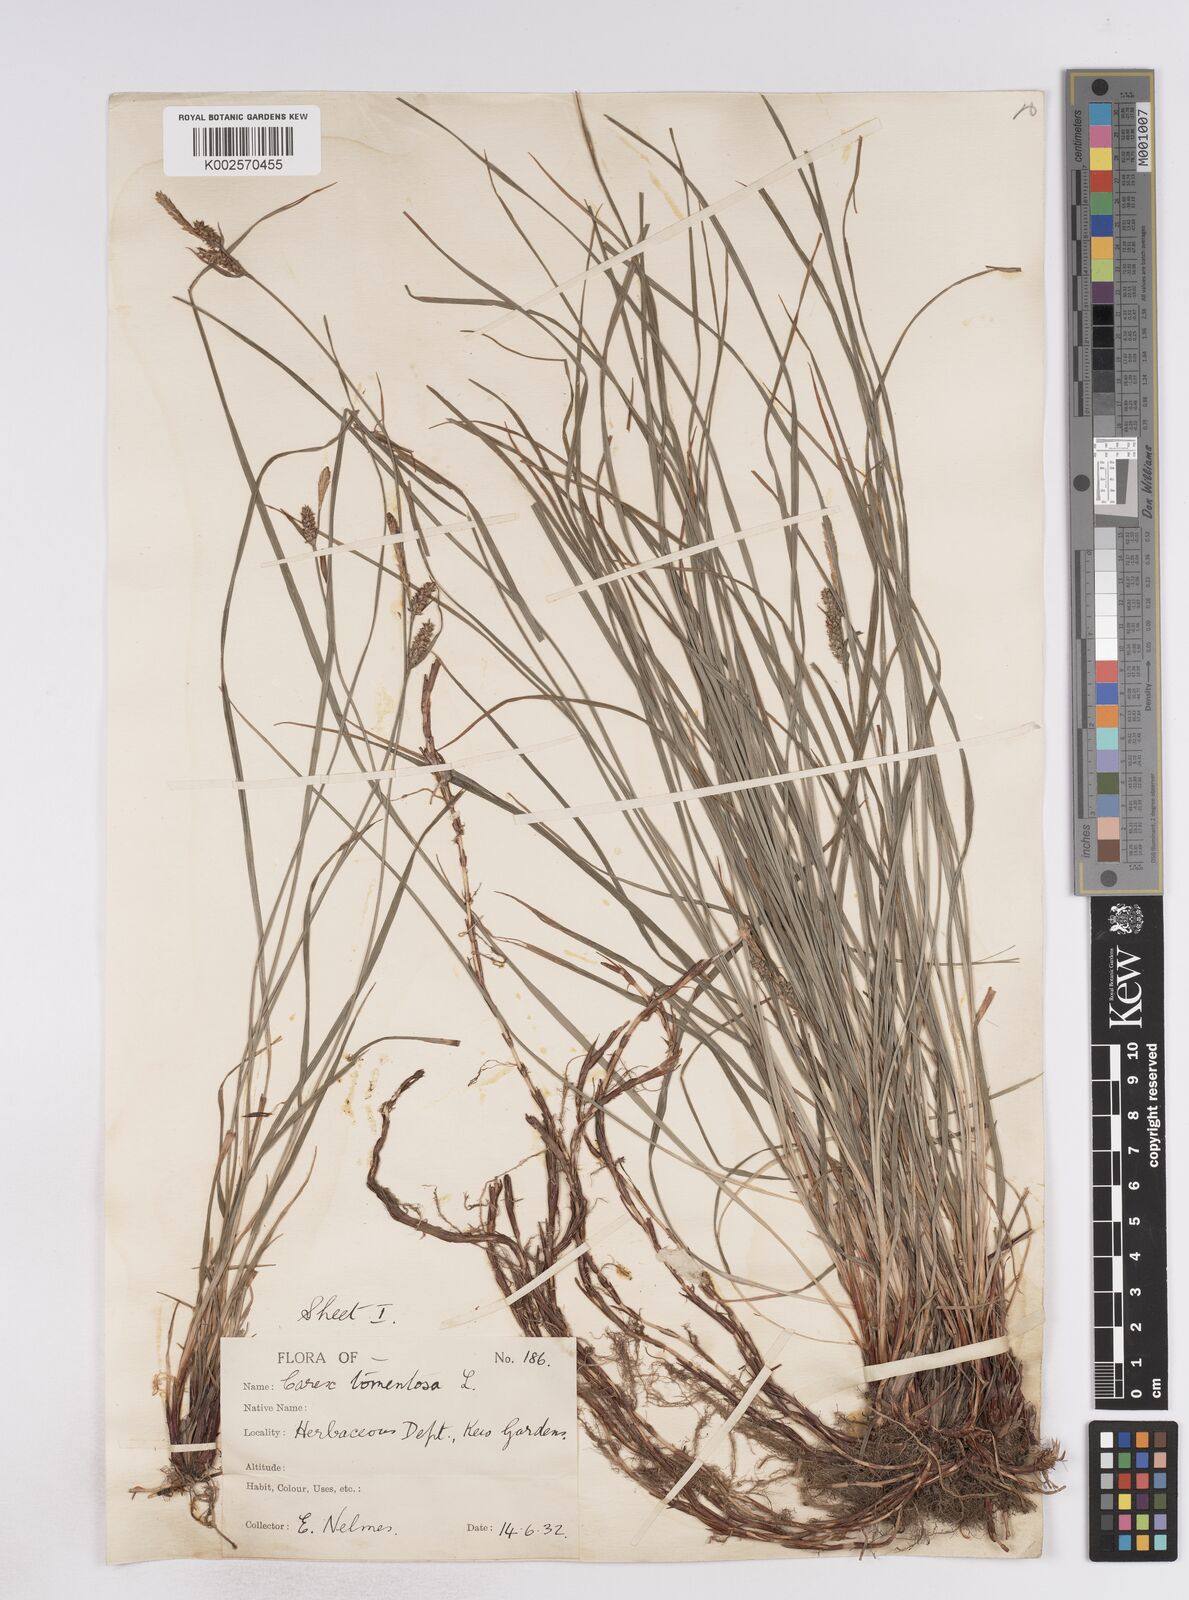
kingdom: Plantae
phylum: Tracheophyta
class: Liliopsida
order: Poales
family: Cyperaceae
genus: Carex
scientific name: Carex montana
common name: Soft-leaved sedge
